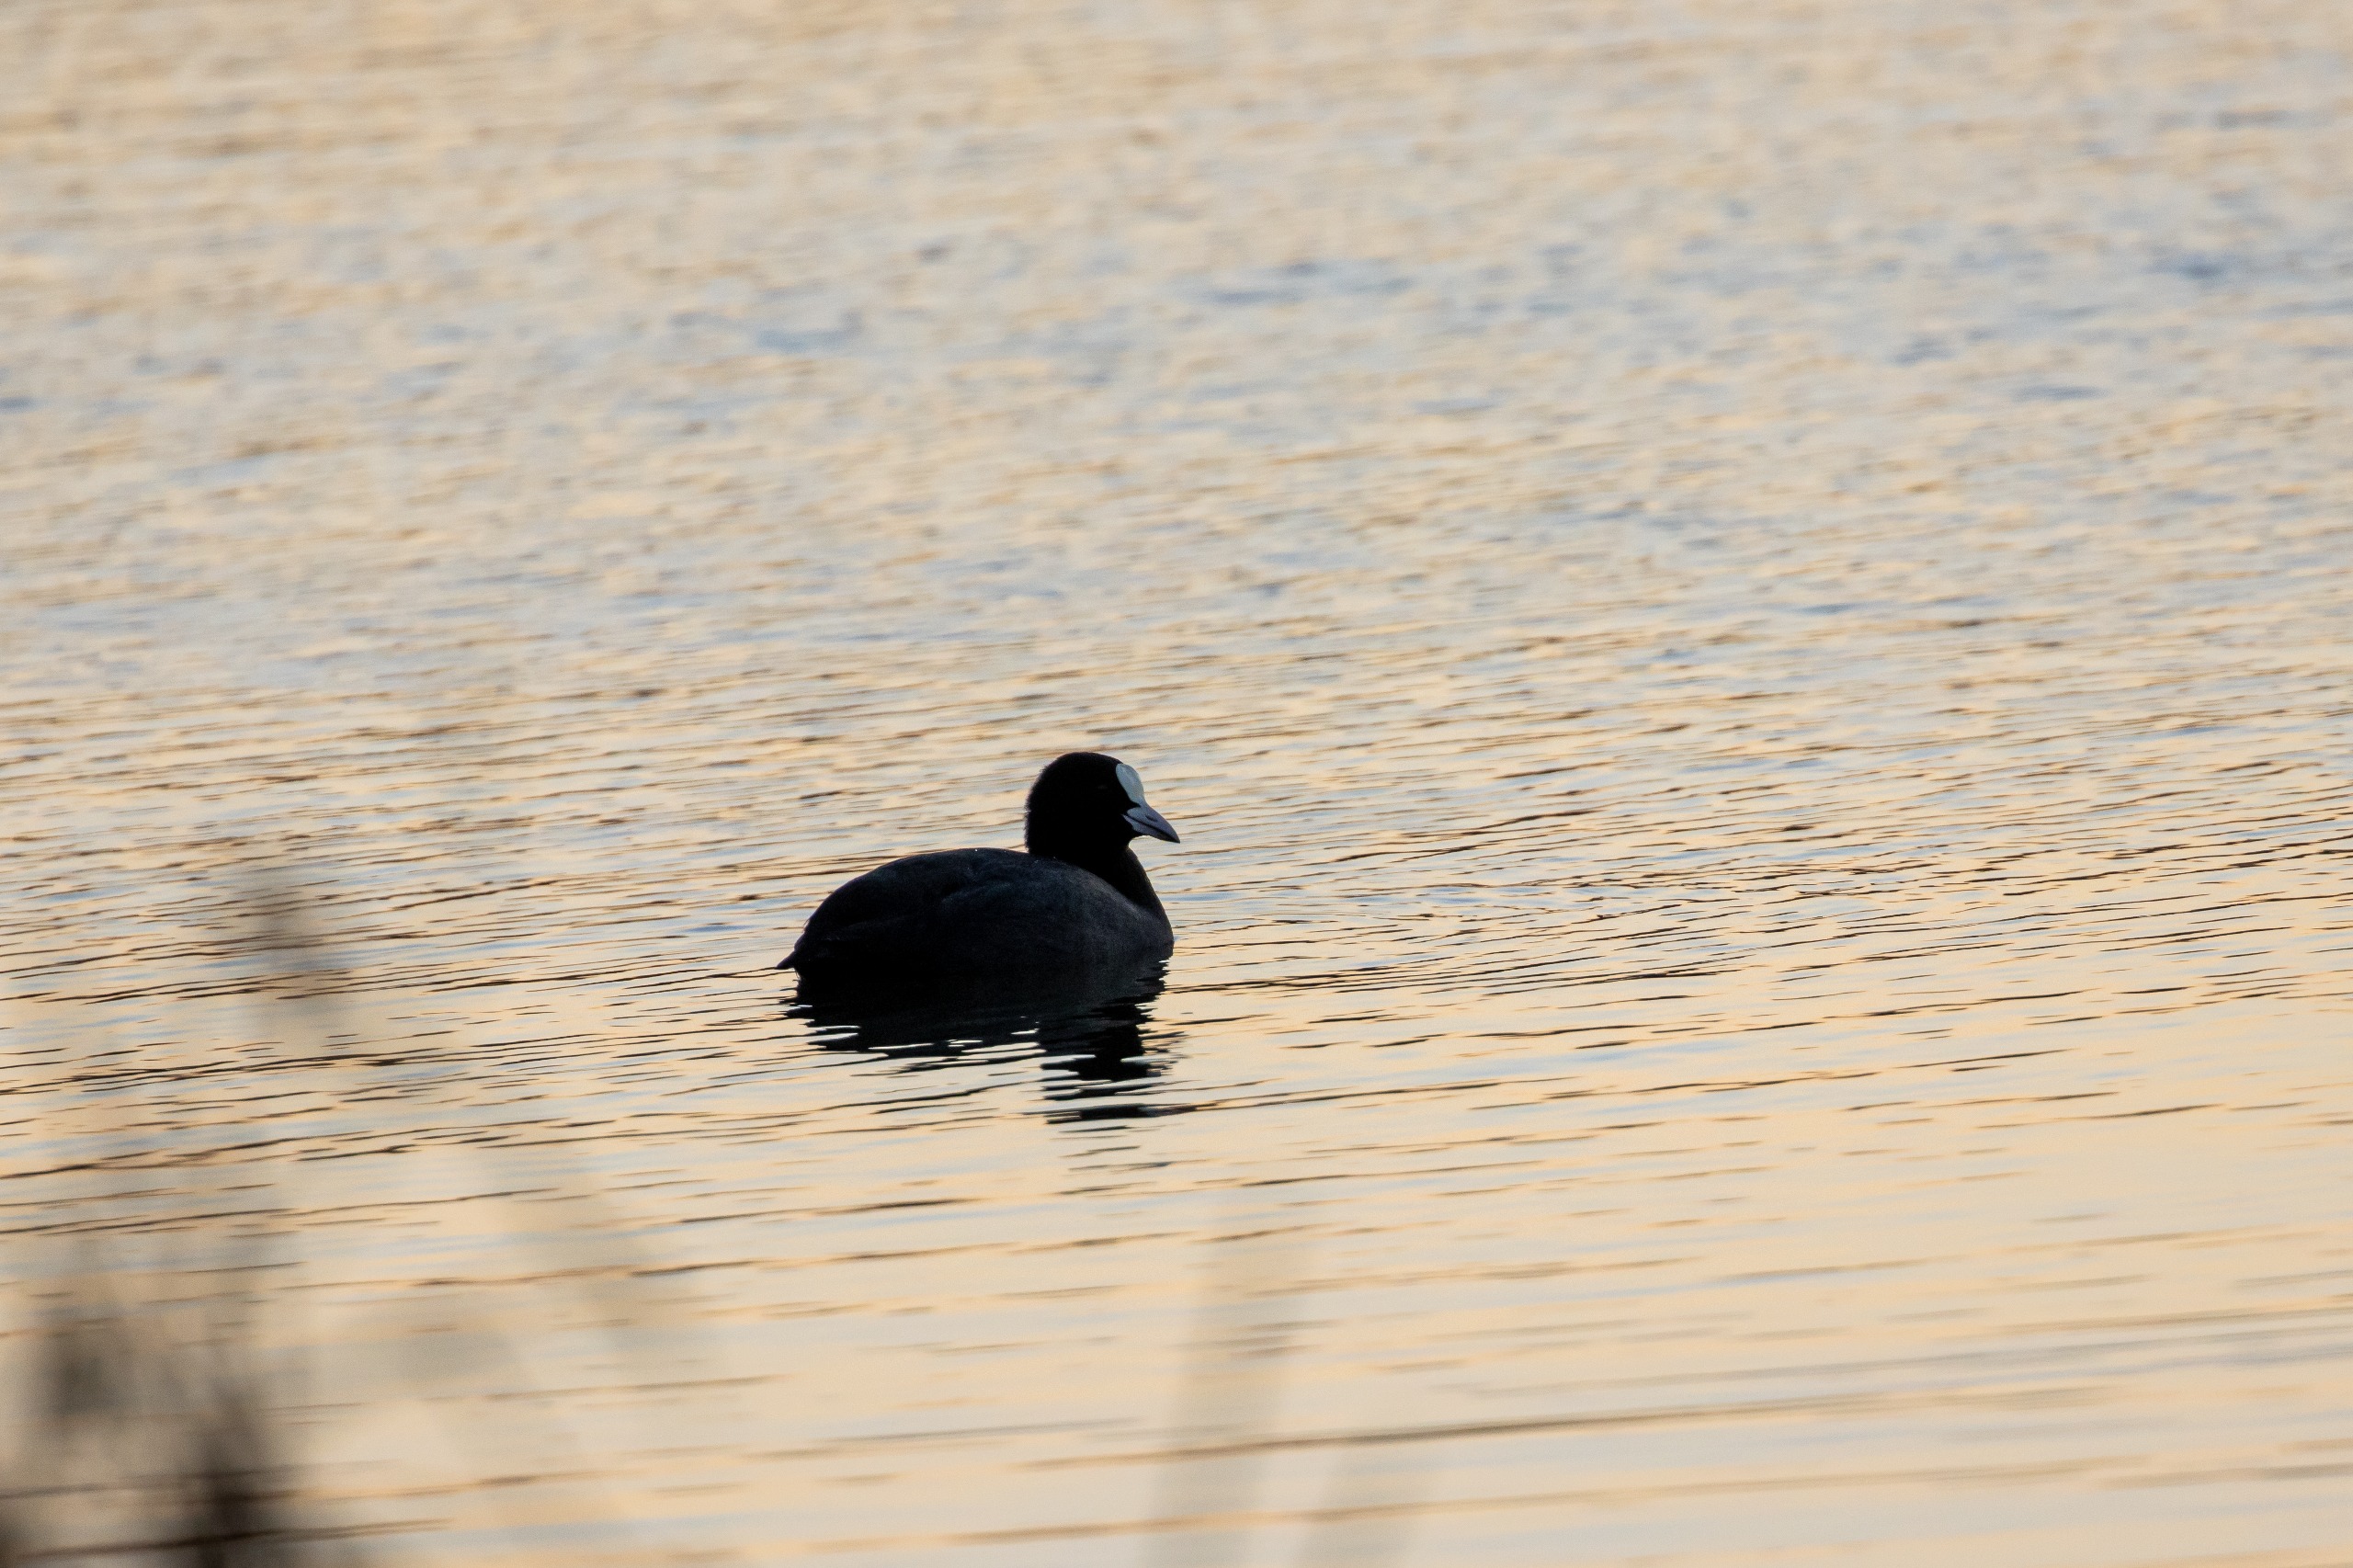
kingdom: Animalia
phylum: Chordata
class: Aves
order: Gruiformes
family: Rallidae
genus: Fulica
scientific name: Fulica atra
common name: Blishøne
